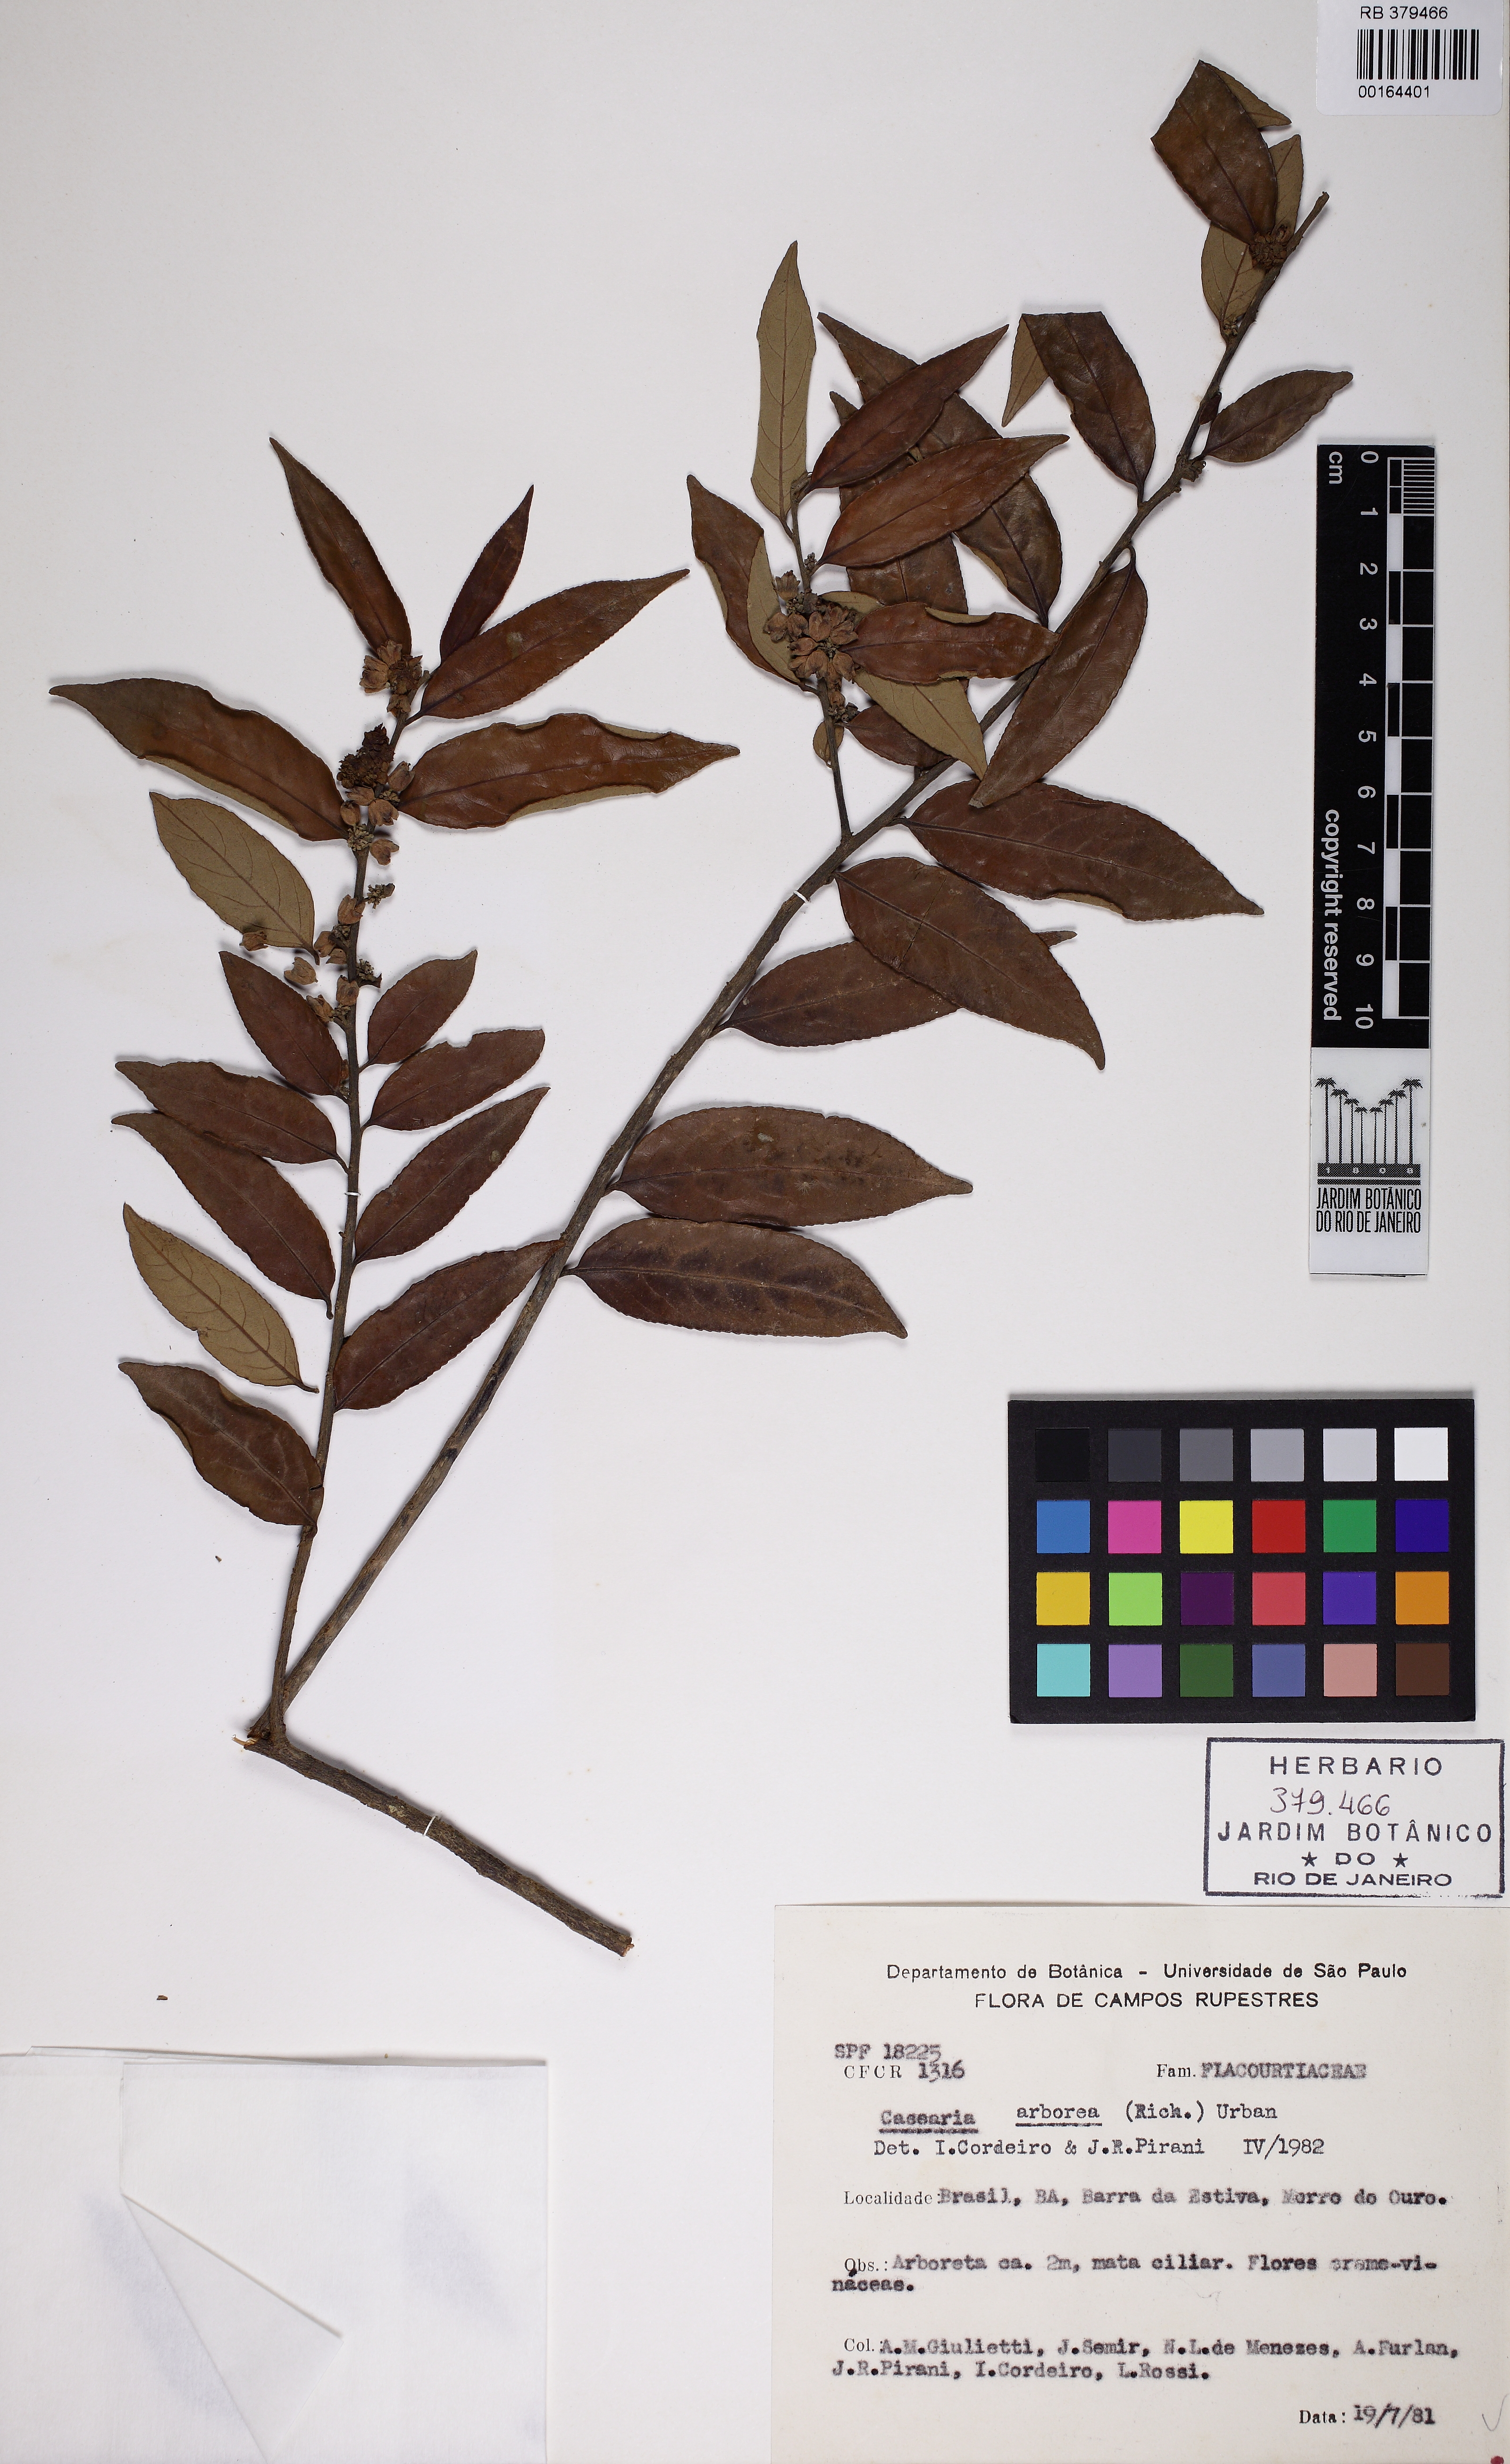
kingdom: Plantae
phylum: Tracheophyta
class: Magnoliopsida
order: Malpighiales
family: Salicaceae
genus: Casearia
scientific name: Casearia
